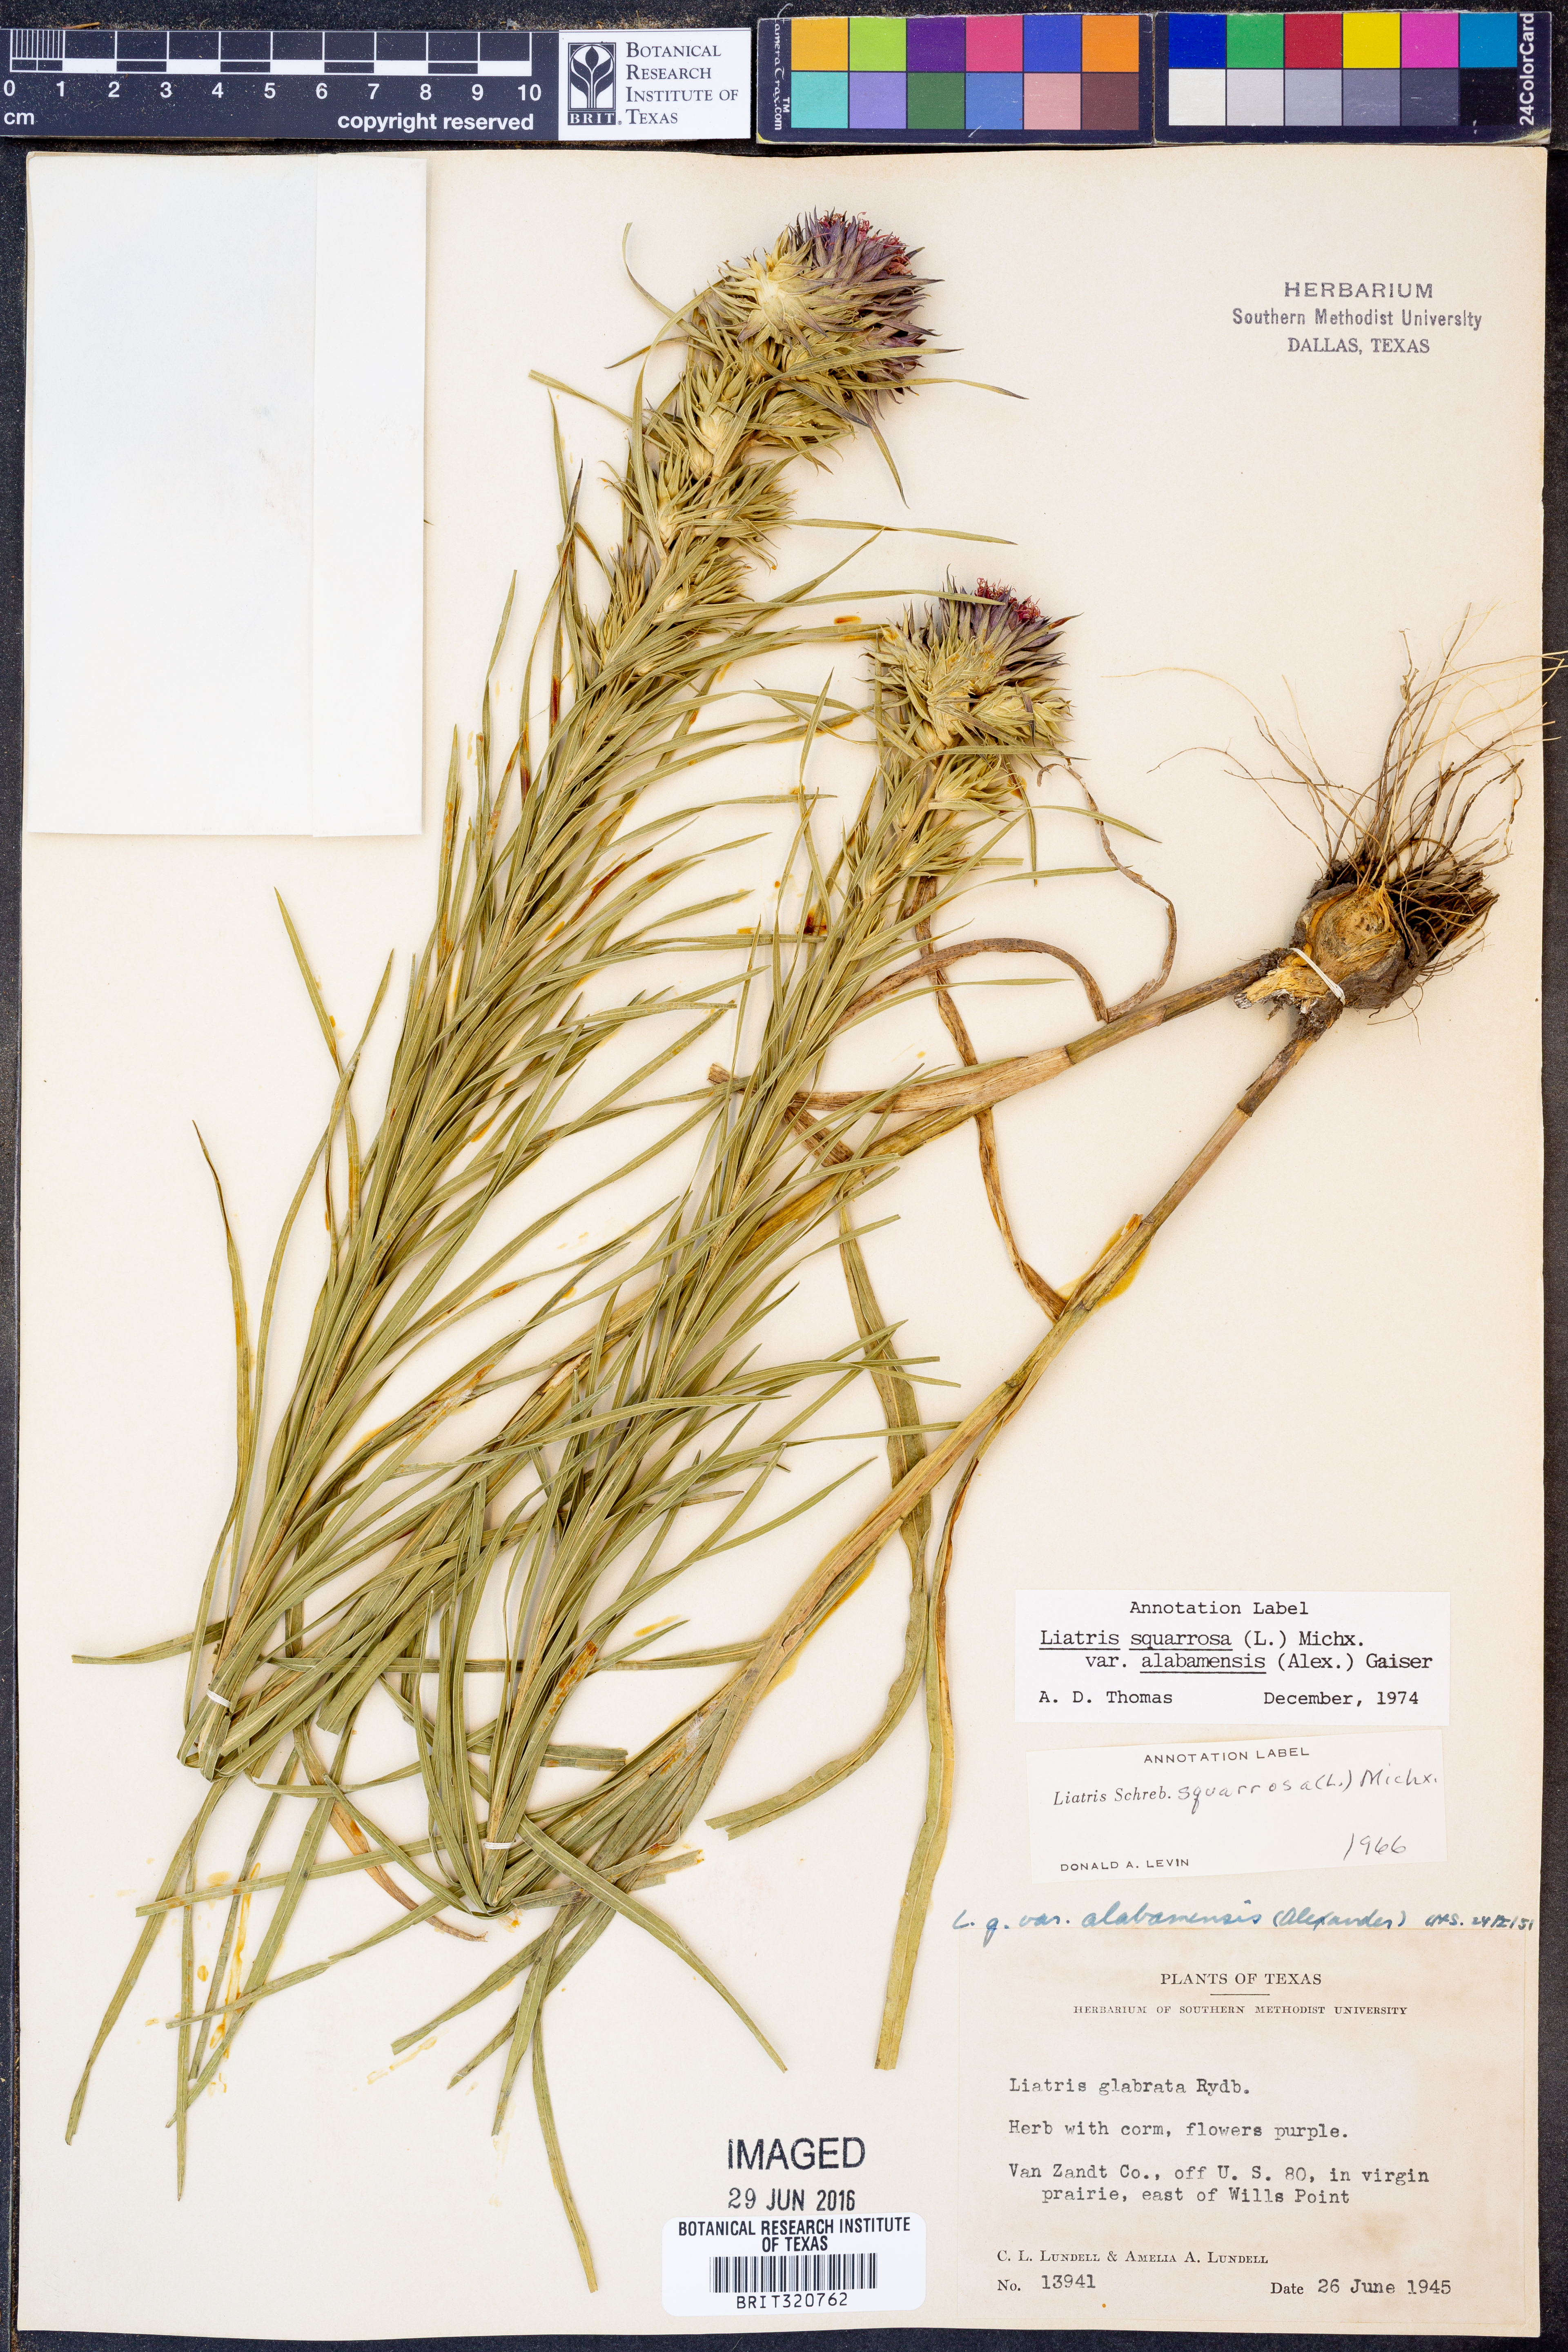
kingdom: Plantae
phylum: Tracheophyta
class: Magnoliopsida
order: Asterales
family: Asteraceae
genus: Liatris
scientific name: Liatris squarrosa
